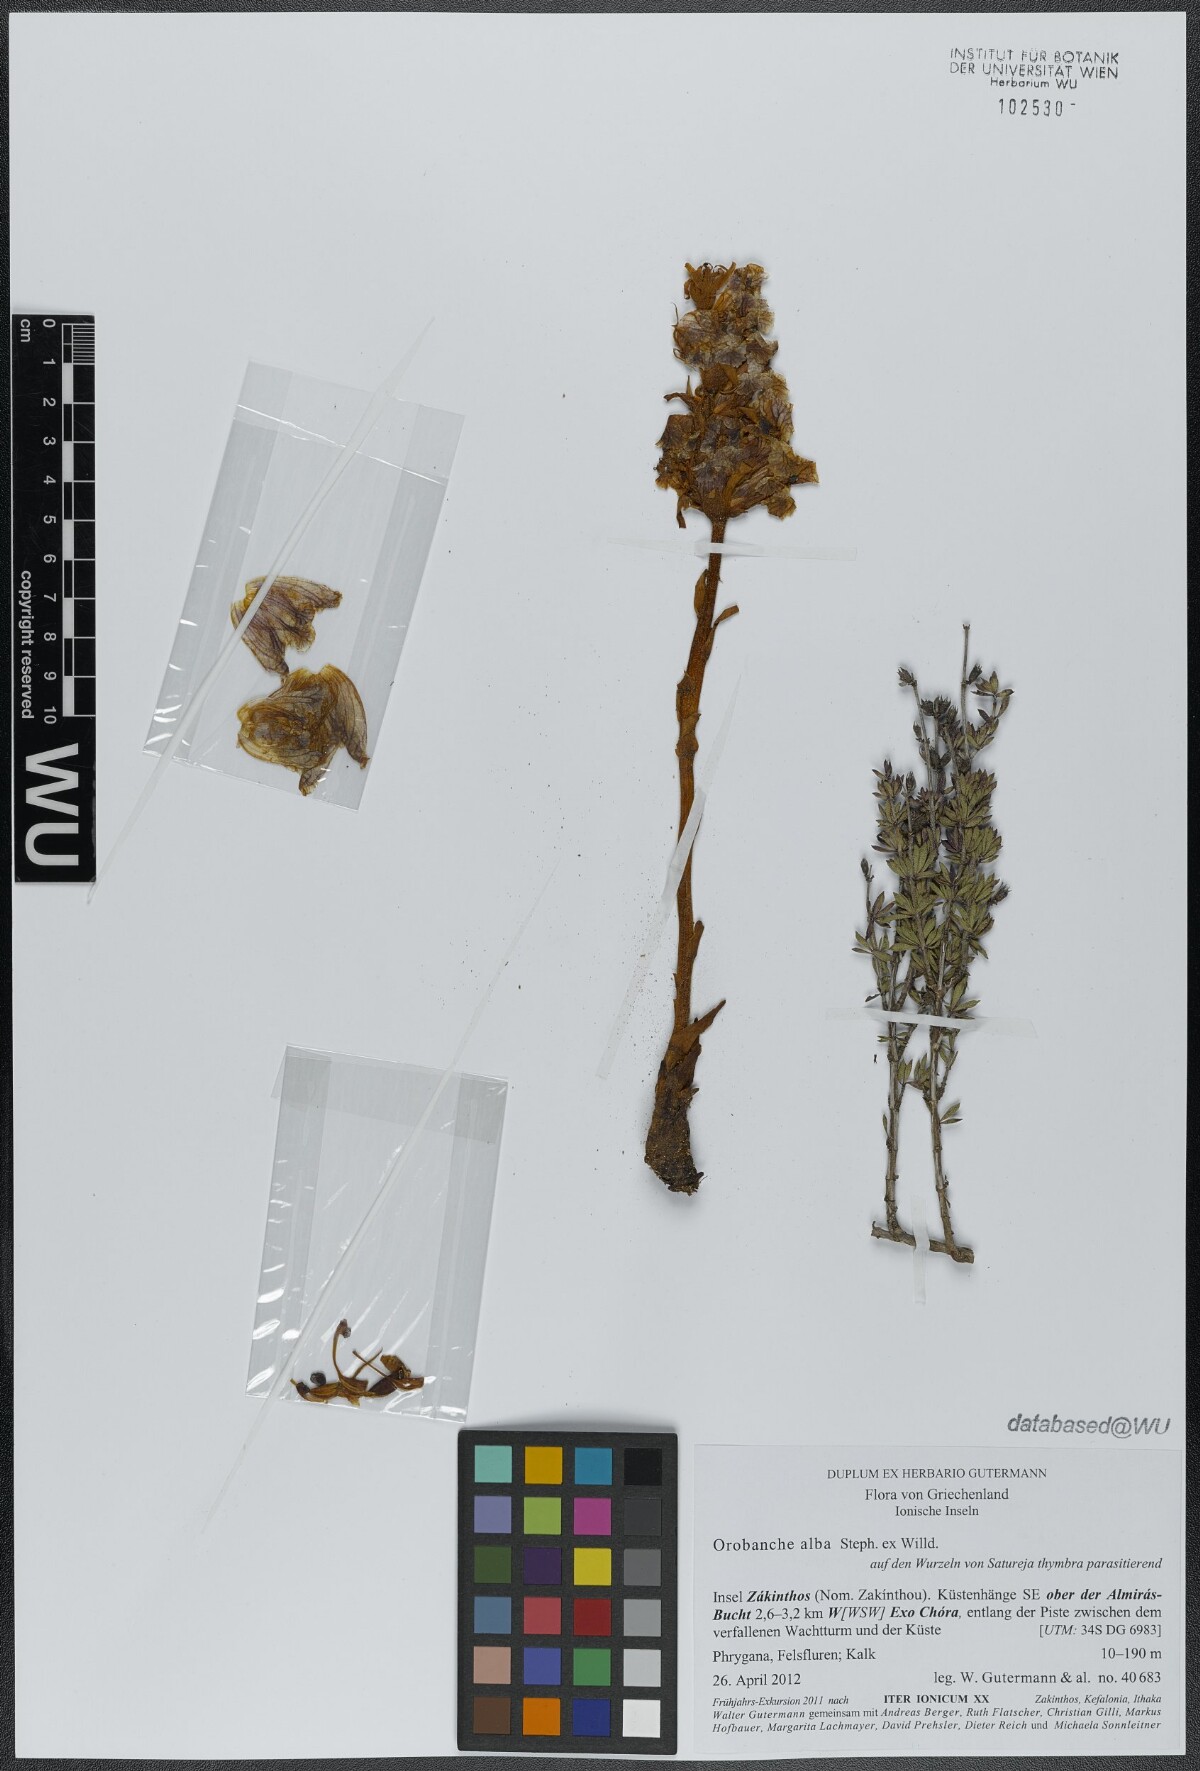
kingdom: Plantae
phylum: Tracheophyta
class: Magnoliopsida
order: Lamiales
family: Orobanchaceae
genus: Orobanche
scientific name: Orobanche alba
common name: Thyme broomrape
